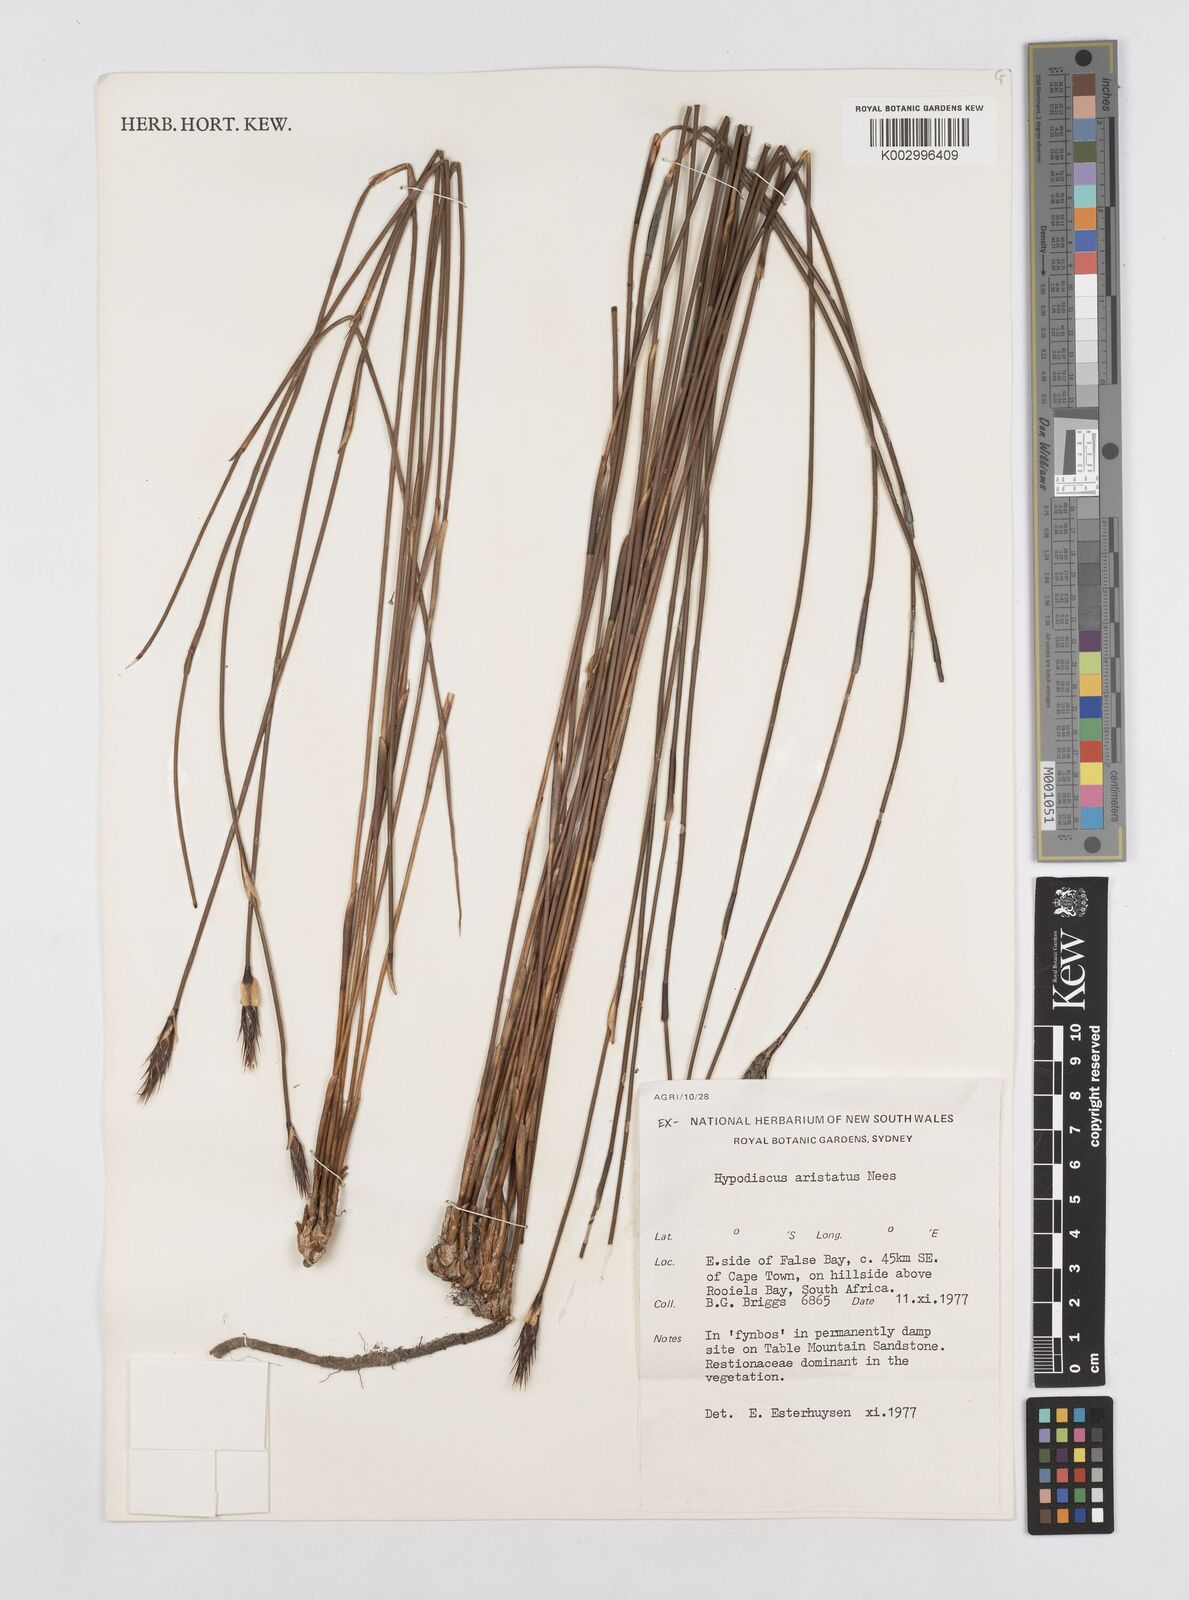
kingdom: Plantae
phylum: Tracheophyta
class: Liliopsida
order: Poales
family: Restionaceae
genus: Hypodiscus
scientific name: Hypodiscus aristatus
